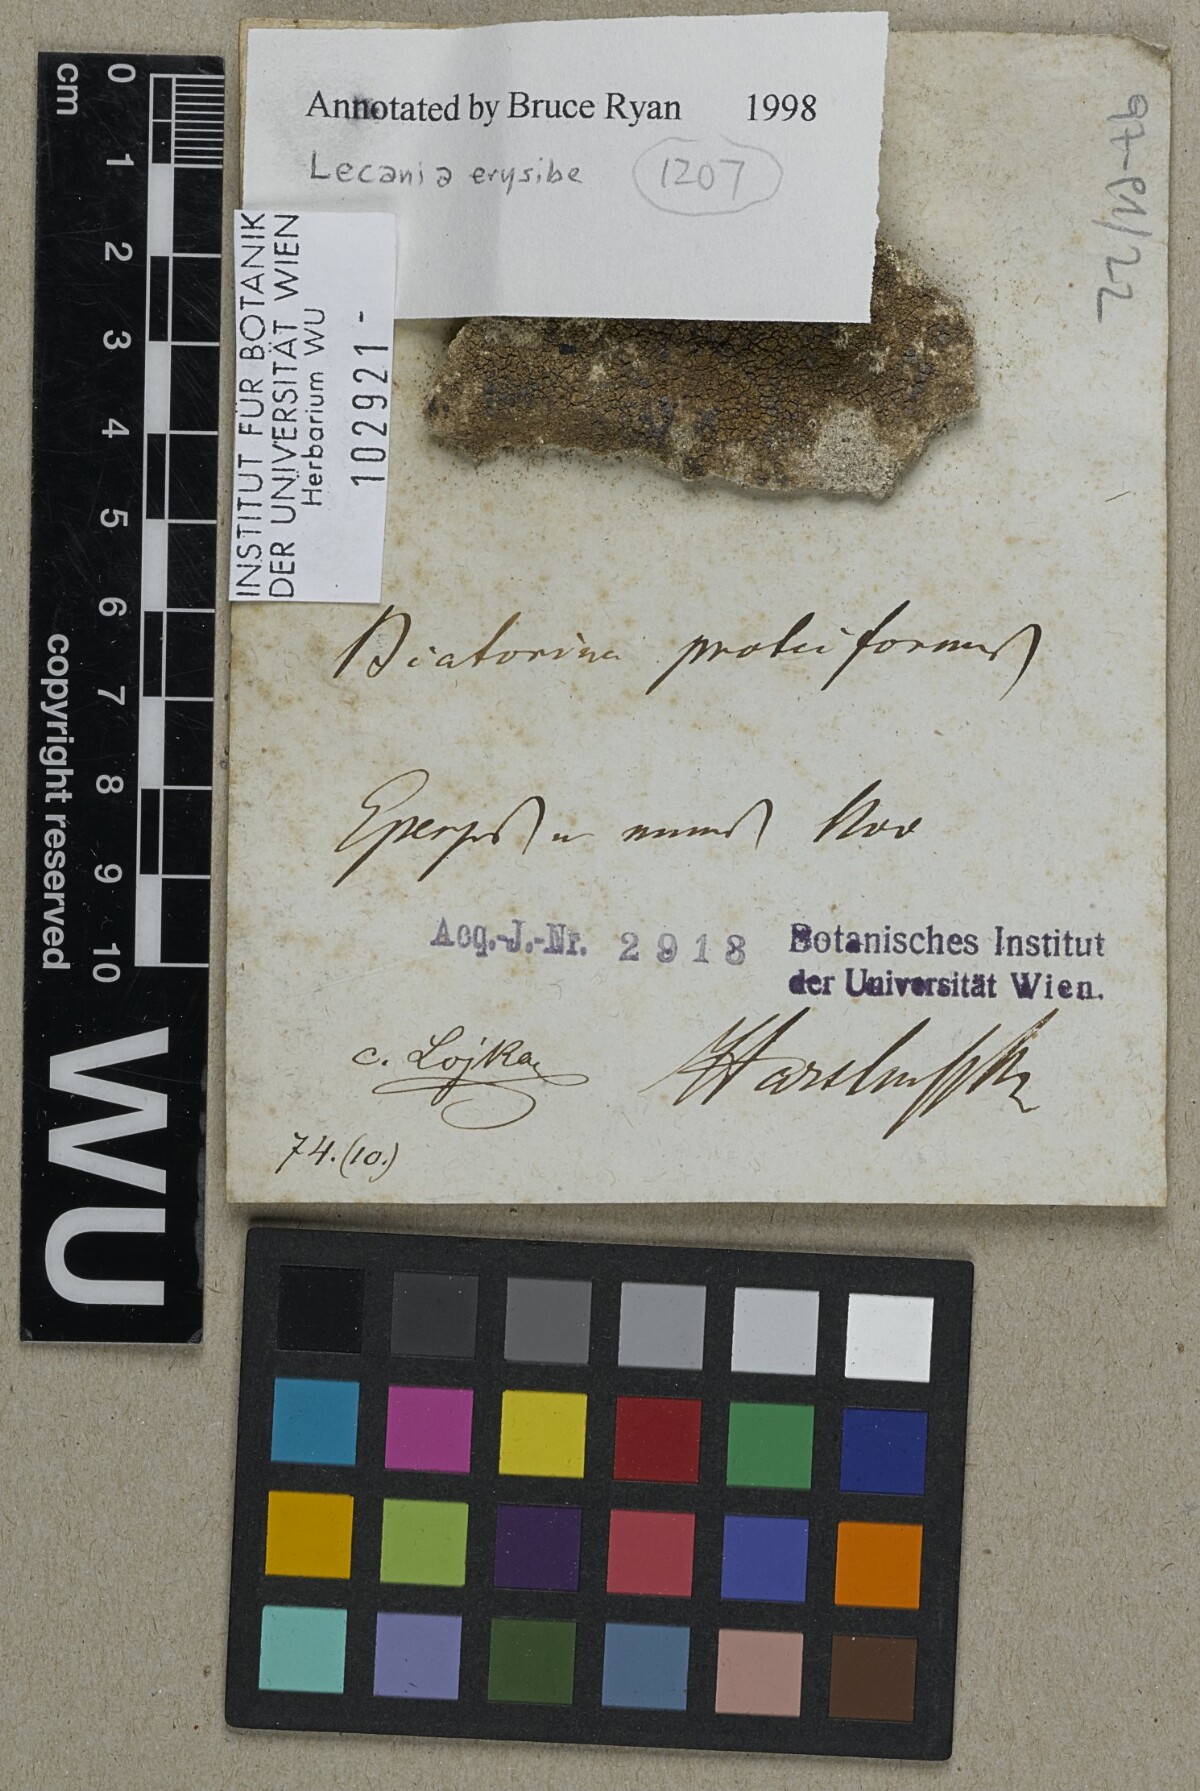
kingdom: Fungi
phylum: Ascomycota
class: Lecanoromycetes
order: Lecanorales
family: Ramalinaceae
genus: Lecania
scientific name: Lecania erysibe
